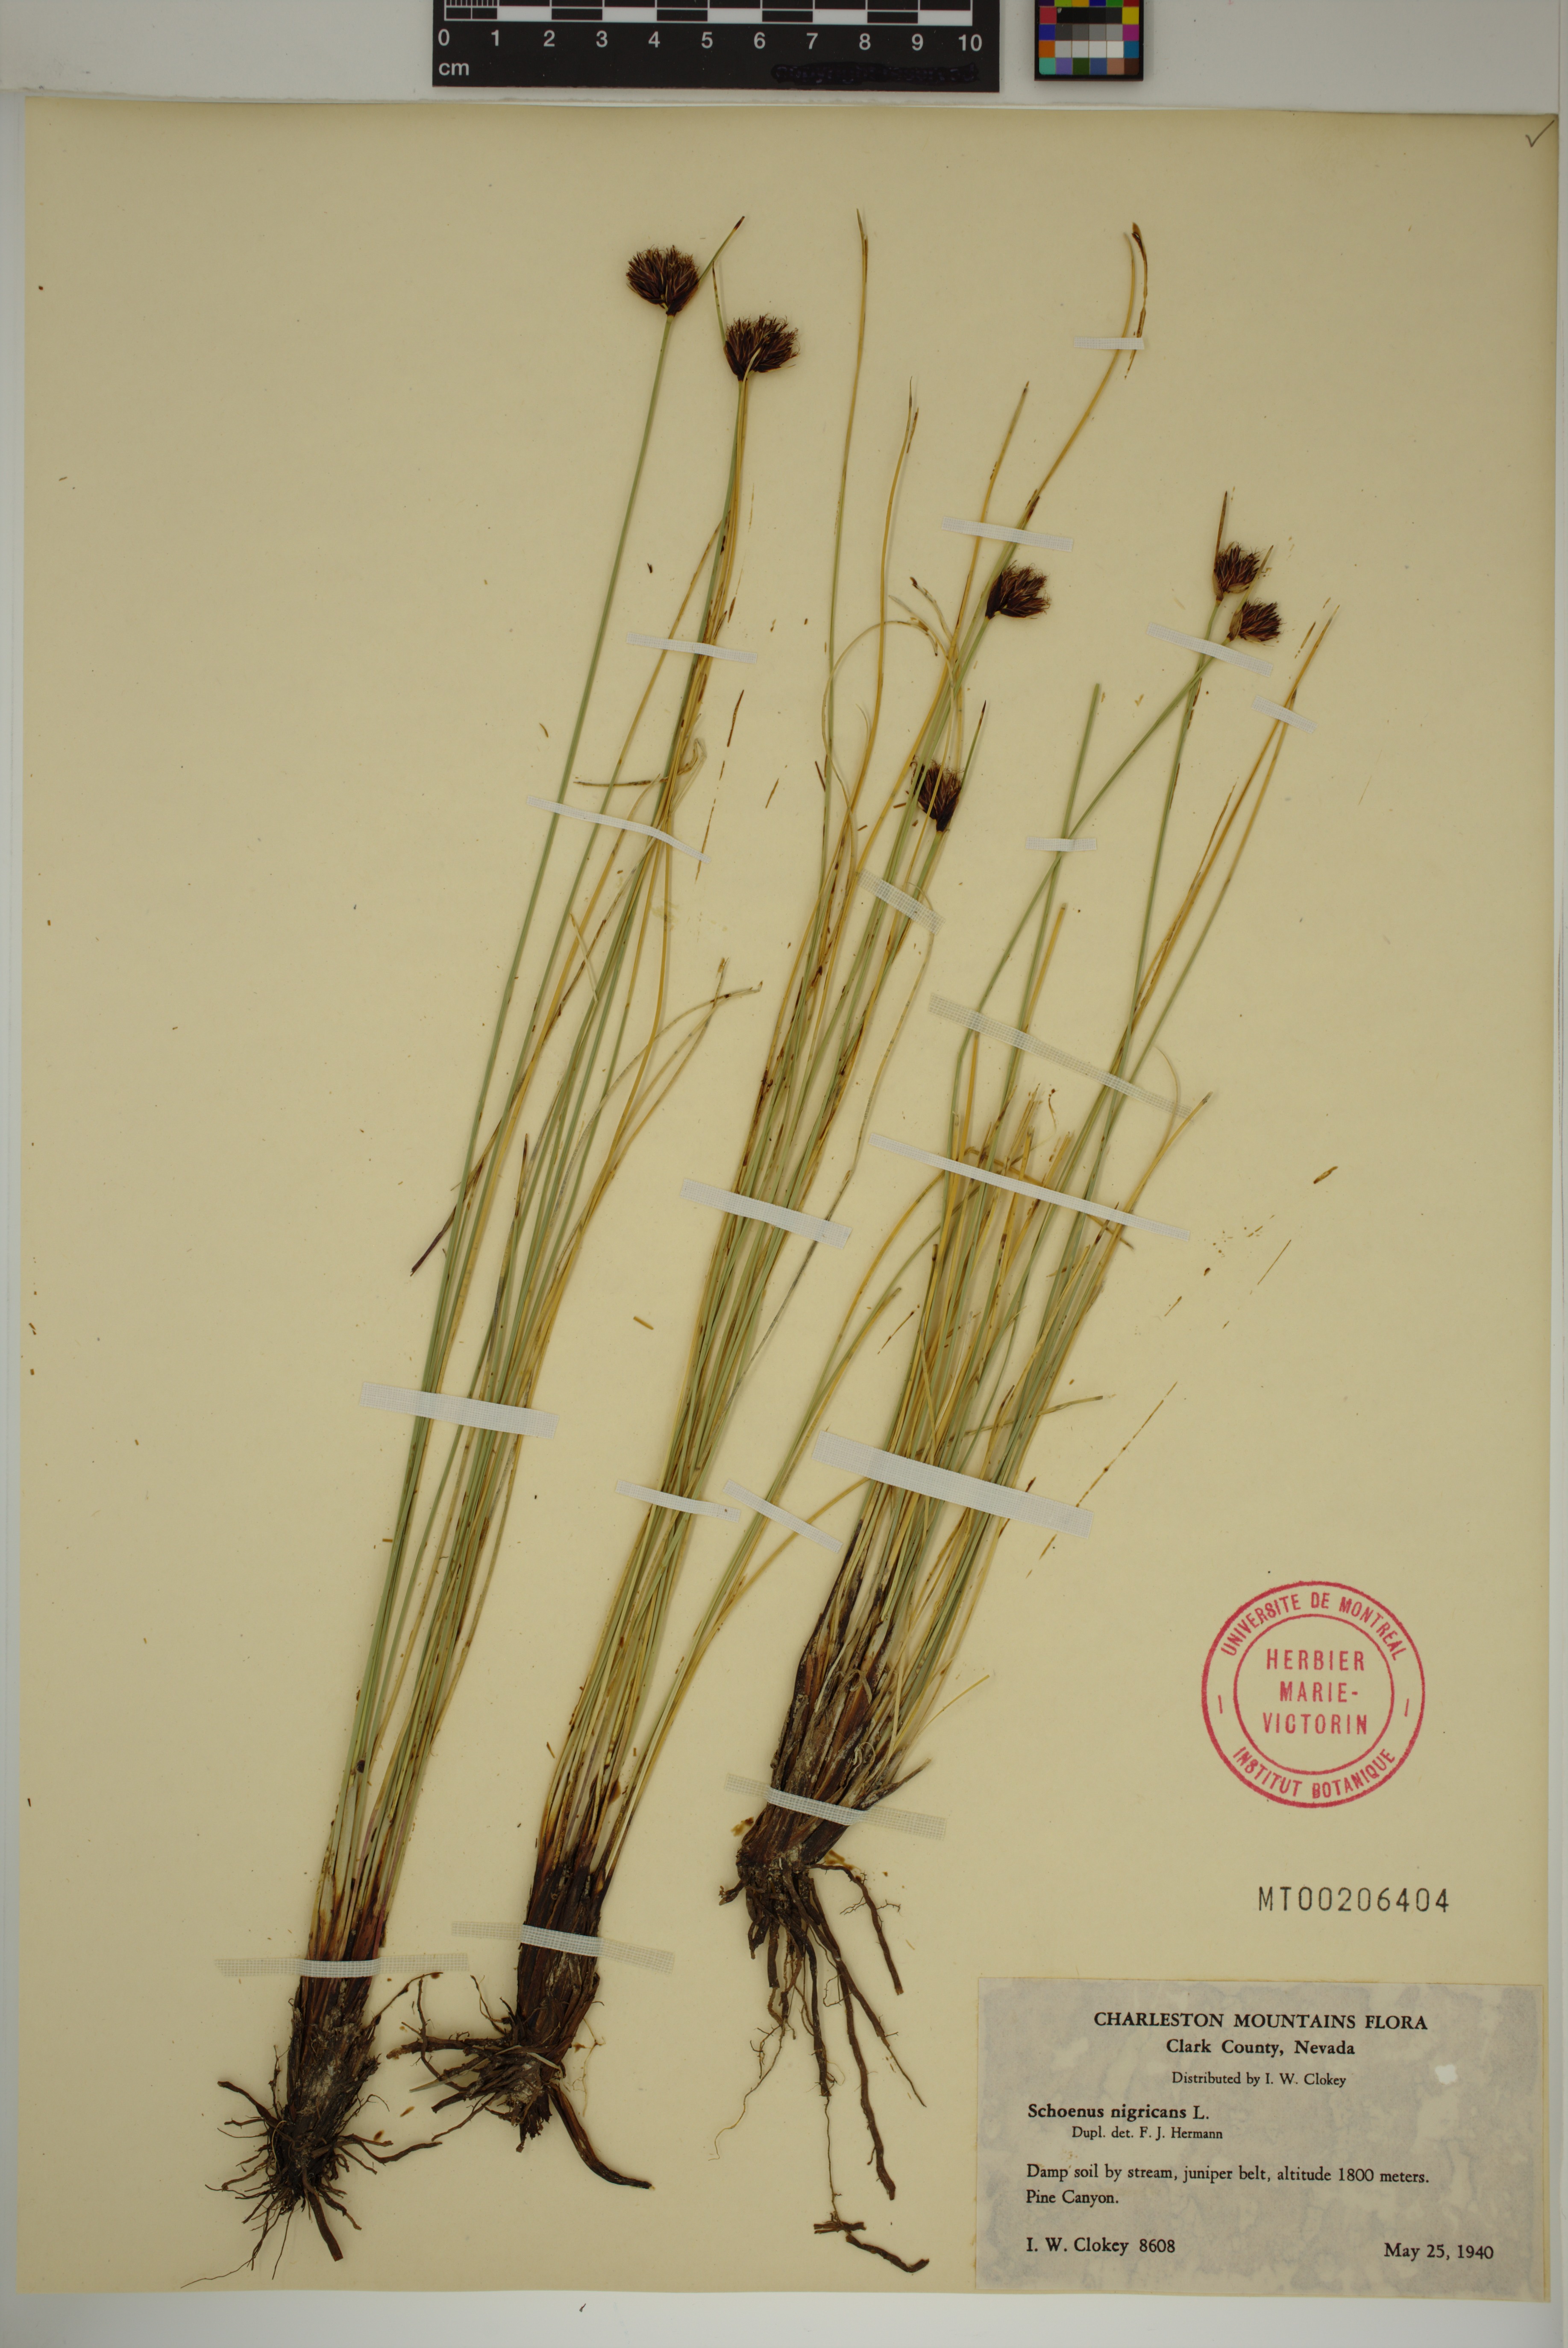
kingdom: Plantae
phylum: Tracheophyta
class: Liliopsida
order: Poales
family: Cyperaceae
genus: Schoenus
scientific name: Schoenus nigricans
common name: Black bog-rush
